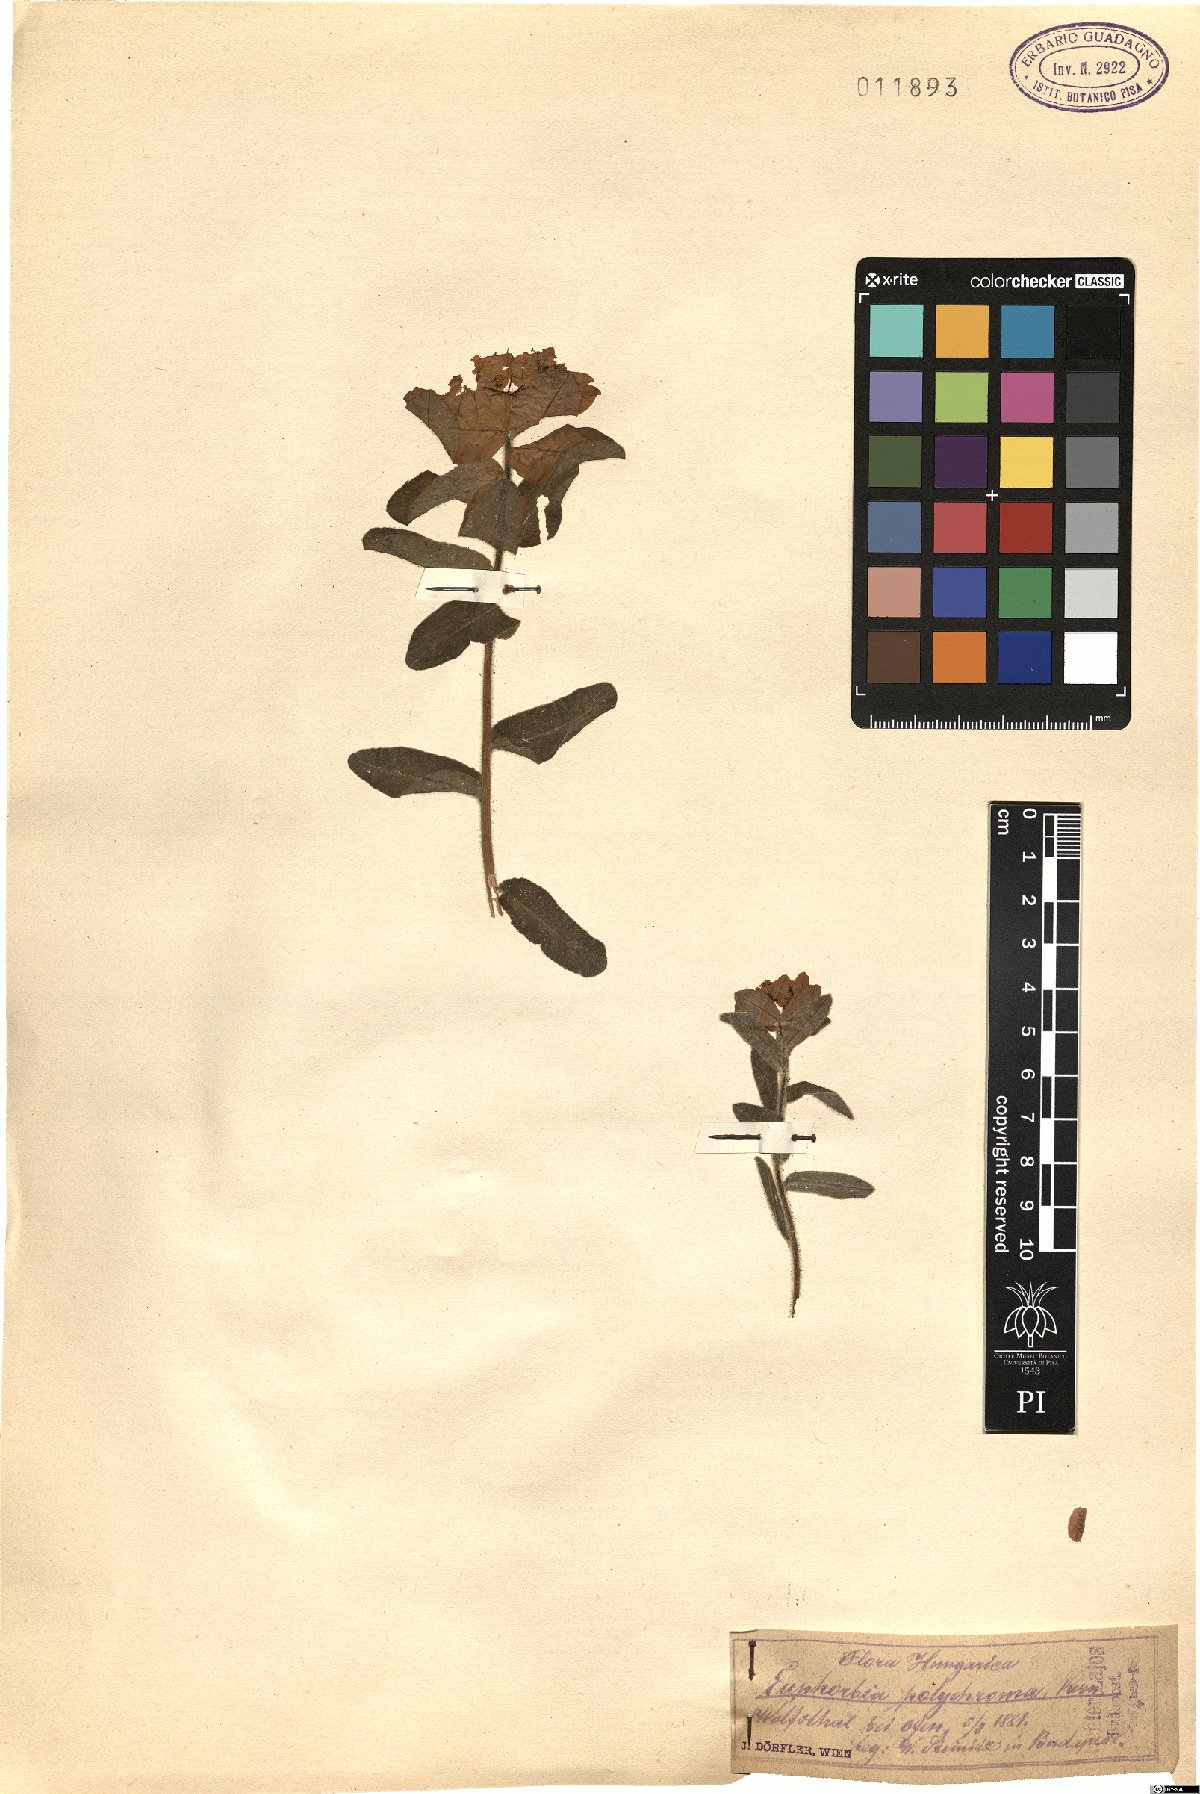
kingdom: Plantae
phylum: Tracheophyta
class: Magnoliopsida
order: Malpighiales
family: Euphorbiaceae
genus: Euphorbia
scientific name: Euphorbia epithymoides
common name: Cushion spurge
